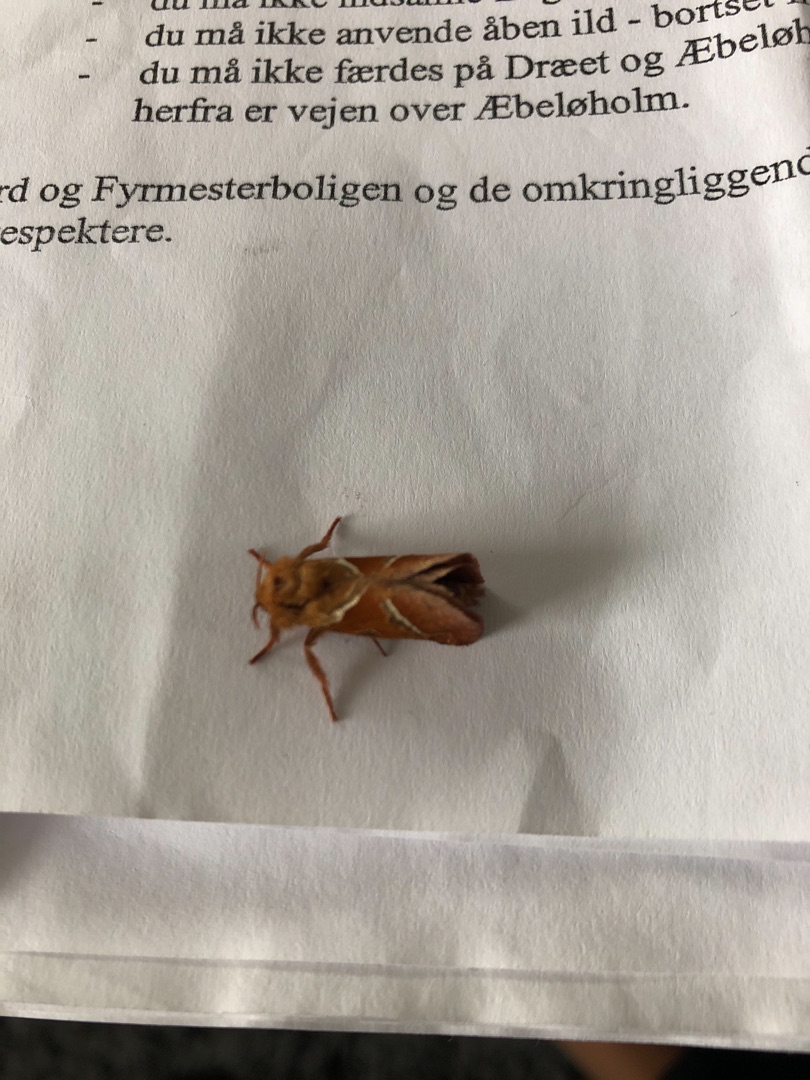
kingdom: Animalia
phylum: Arthropoda
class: Insecta
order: Lepidoptera
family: Hepialidae
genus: Triodia
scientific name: Triodia sylvina
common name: Skræpperodæder
